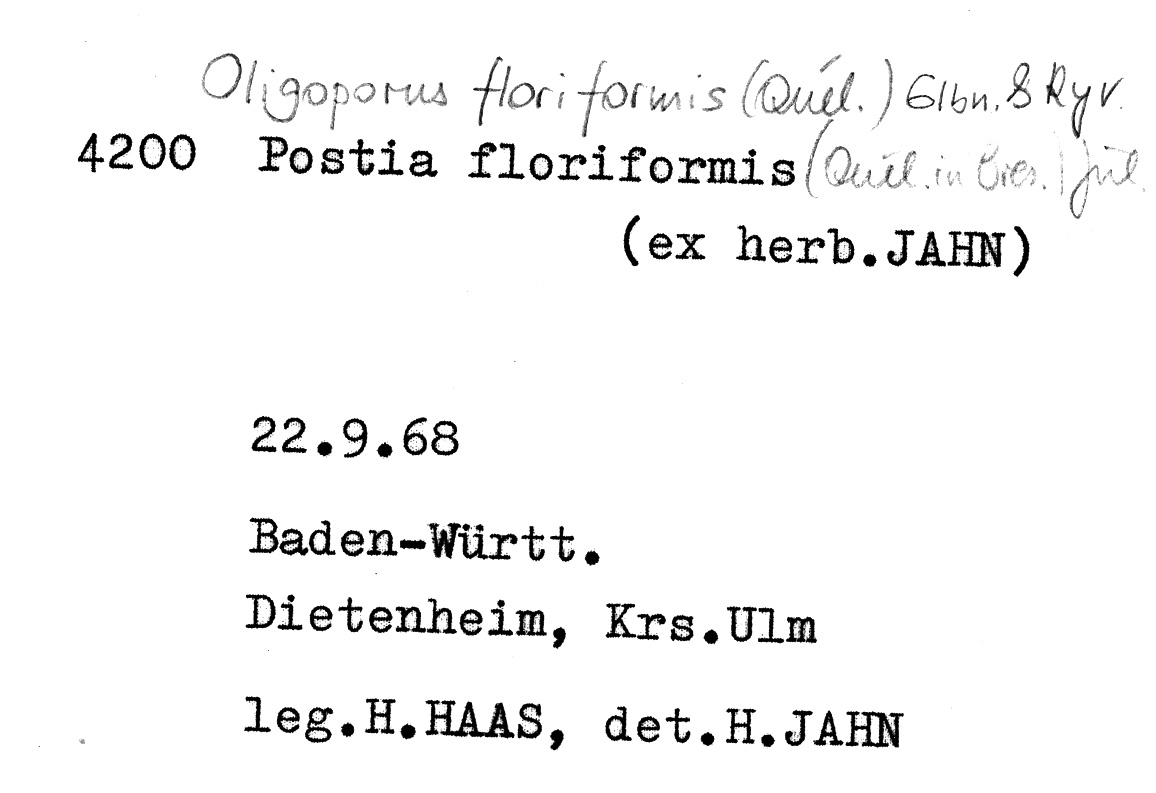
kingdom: Fungi
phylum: Basidiomycota
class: Agaricomycetes
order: Polyporales
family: Dacryobolaceae
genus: Spongiporus
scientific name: Spongiporus floriformis
